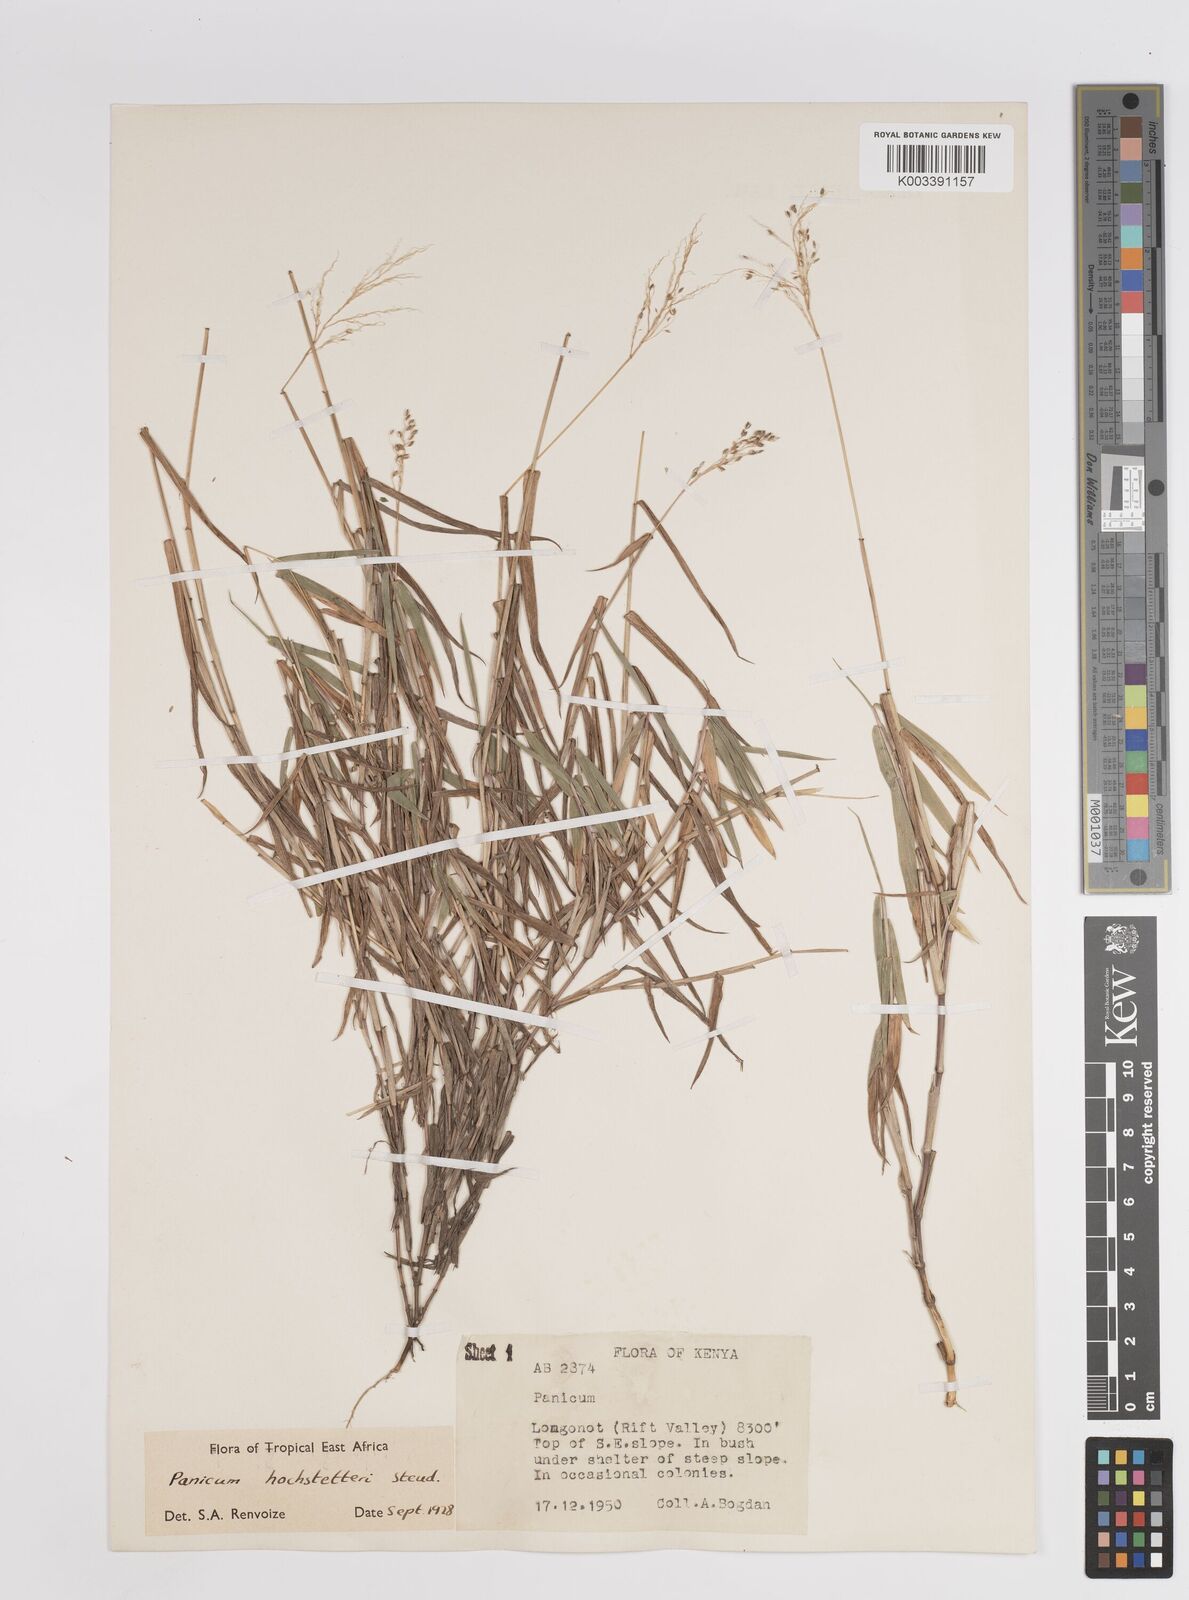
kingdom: Plantae
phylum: Tracheophyta
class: Liliopsida
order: Poales
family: Poaceae
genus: Panicum
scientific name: Panicum hochstetteri
